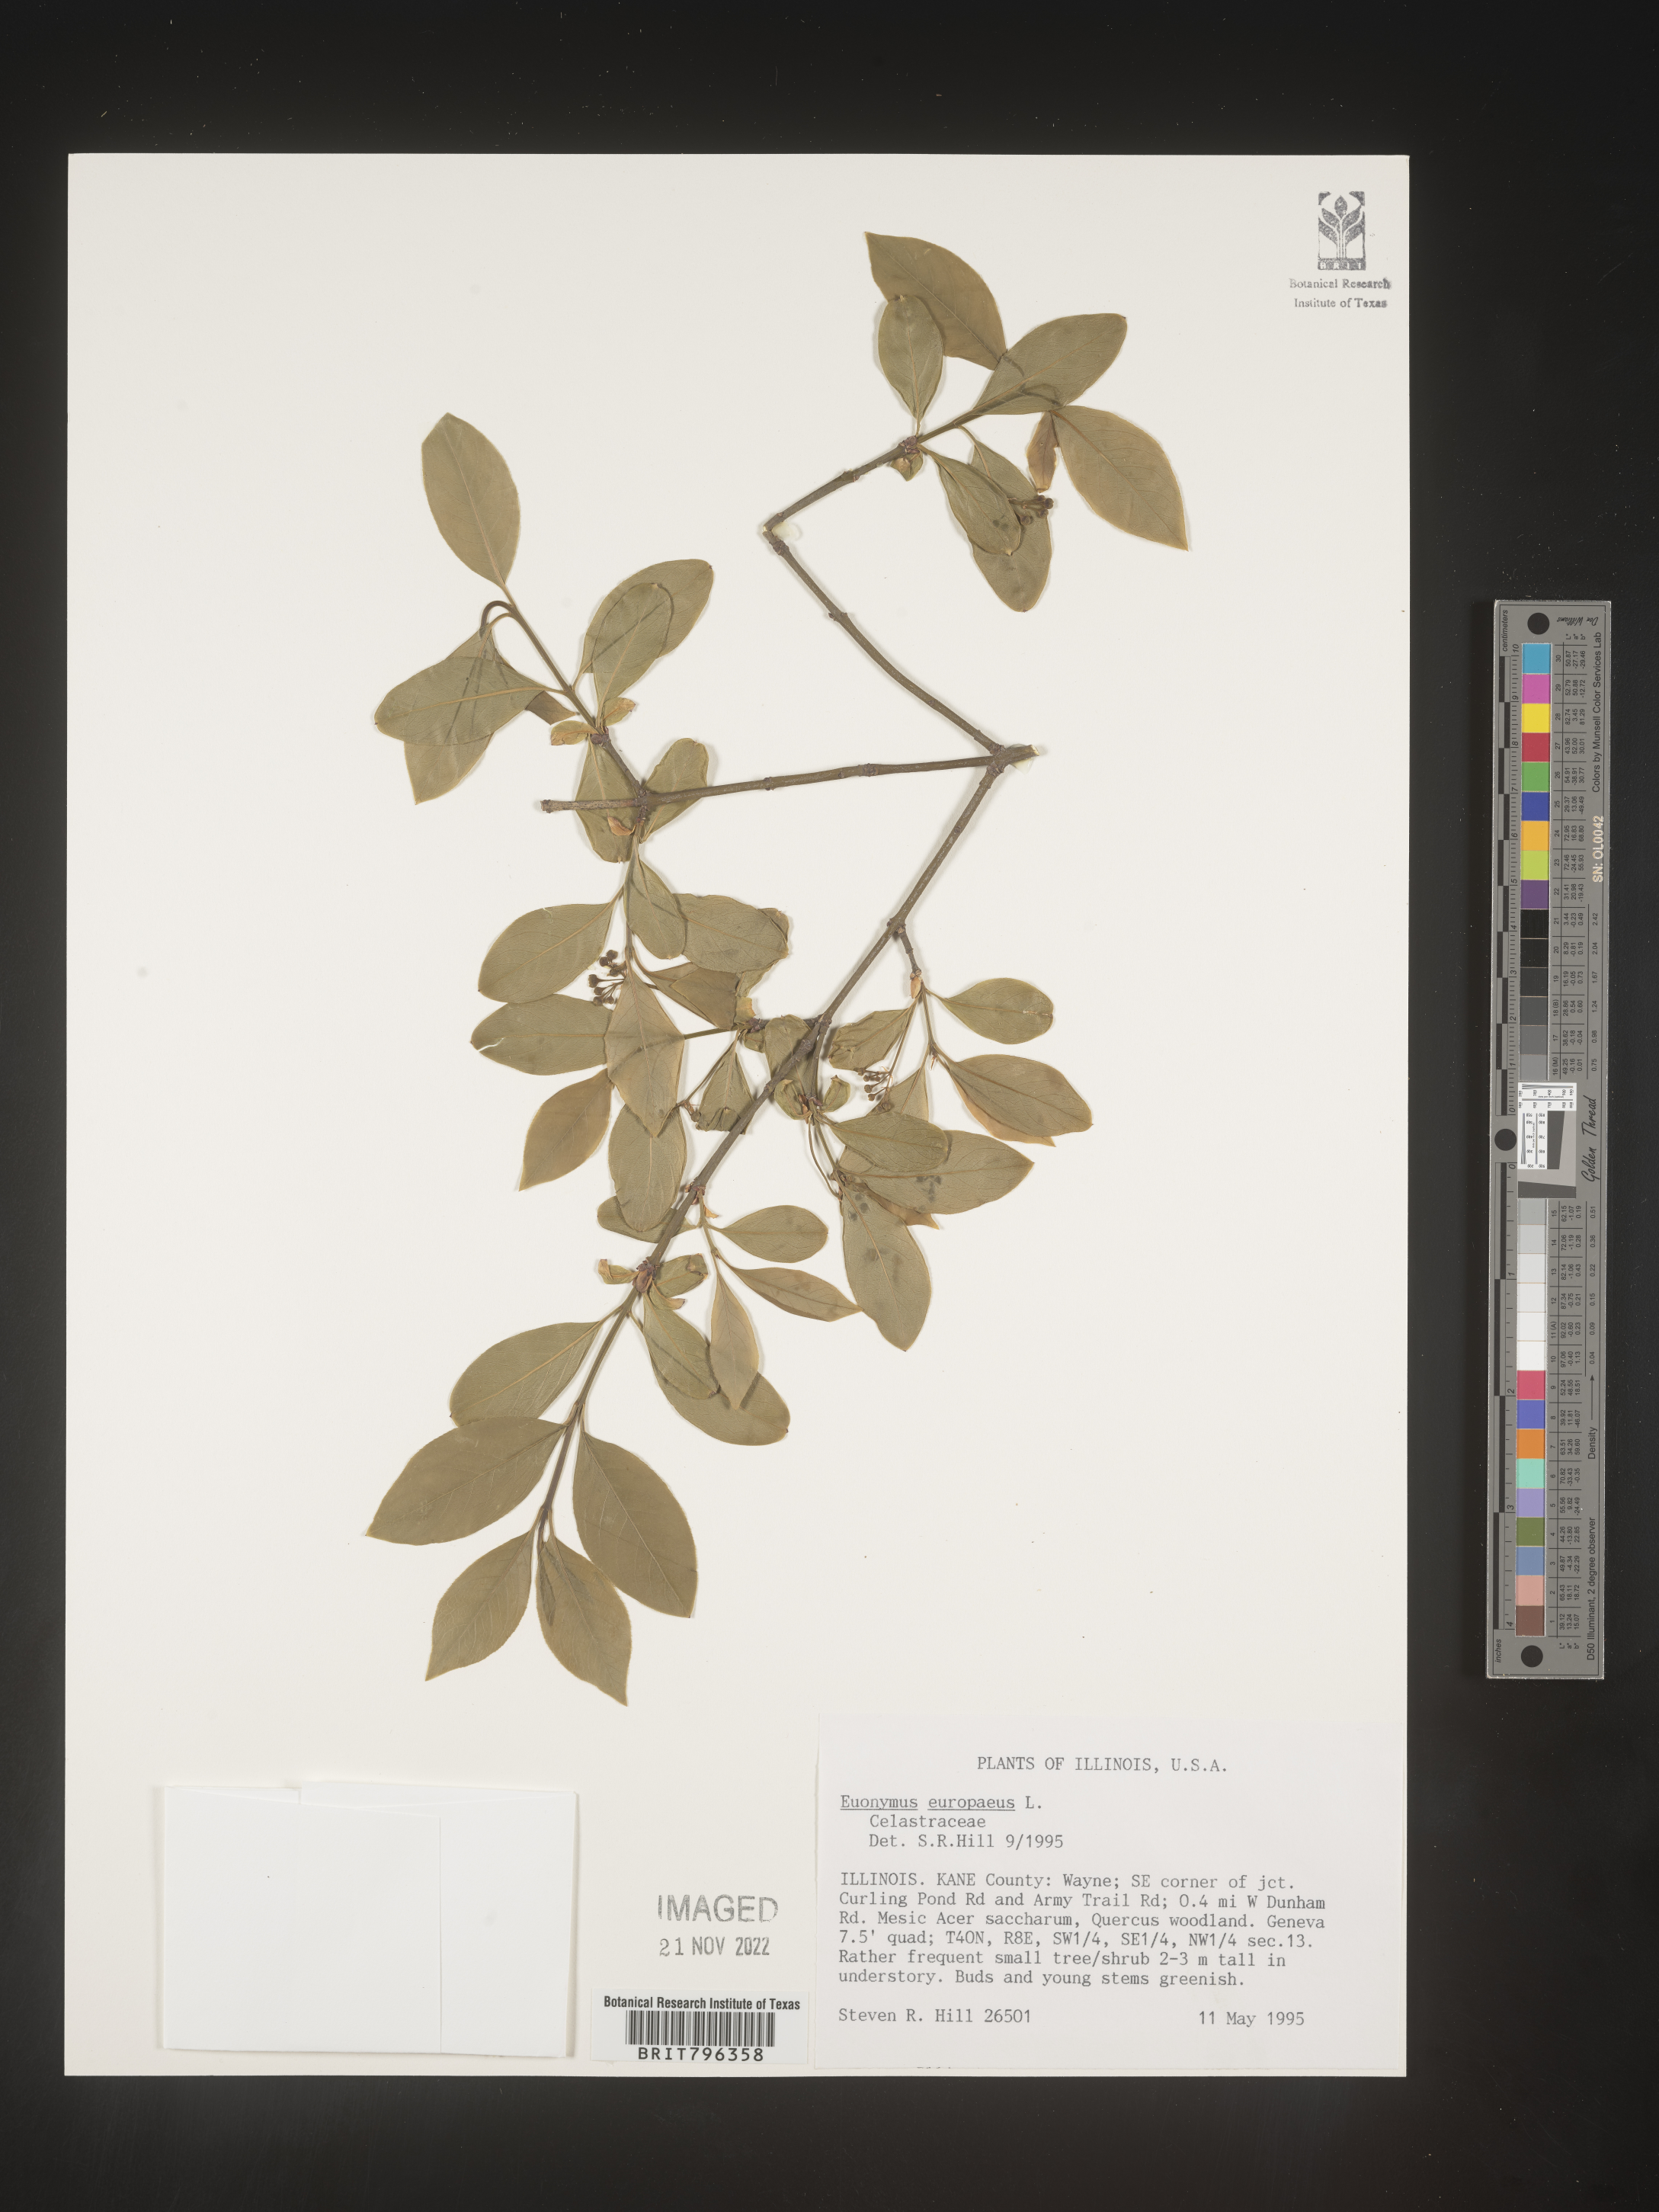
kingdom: Plantae
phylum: Tracheophyta
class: Magnoliopsida
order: Celastrales
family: Celastraceae
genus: Euonymus
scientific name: Euonymus europaeus
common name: Spindle
